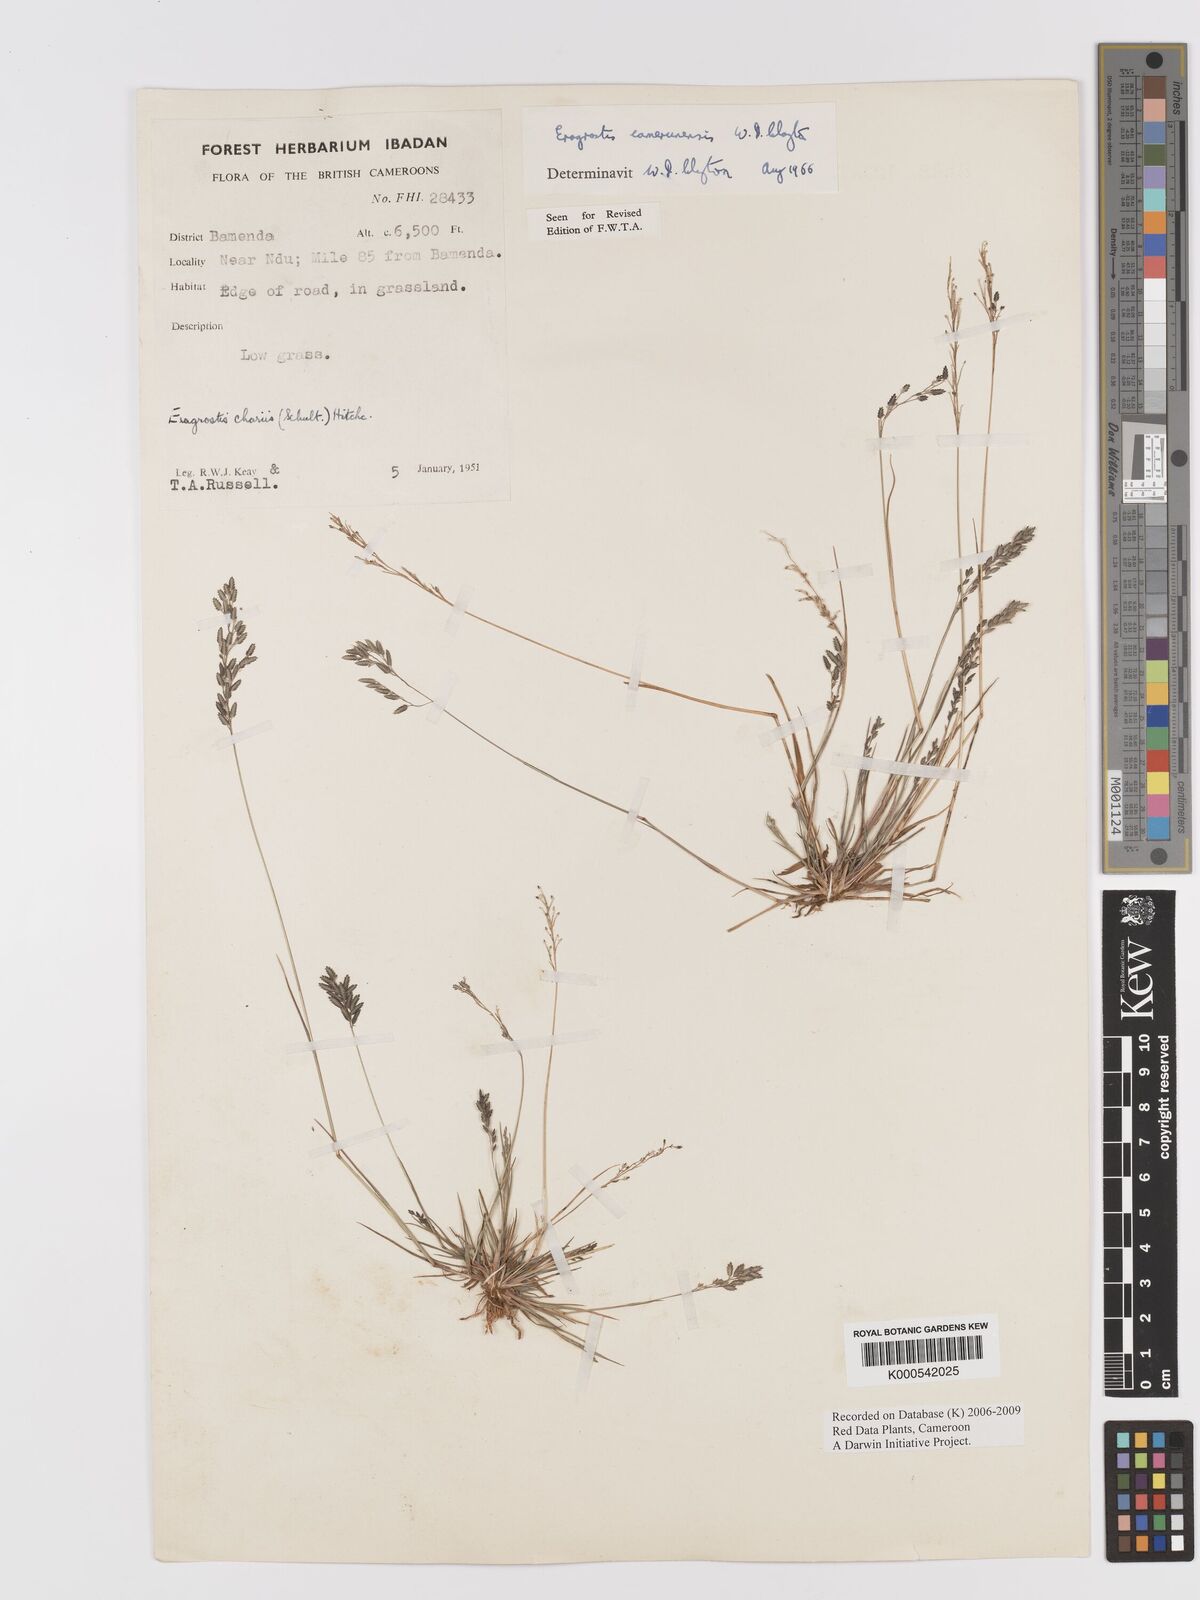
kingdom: Plantae
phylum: Tracheophyta
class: Liliopsida
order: Poales
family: Poaceae
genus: Eragrostis
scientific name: Eragrostis camerunensis
